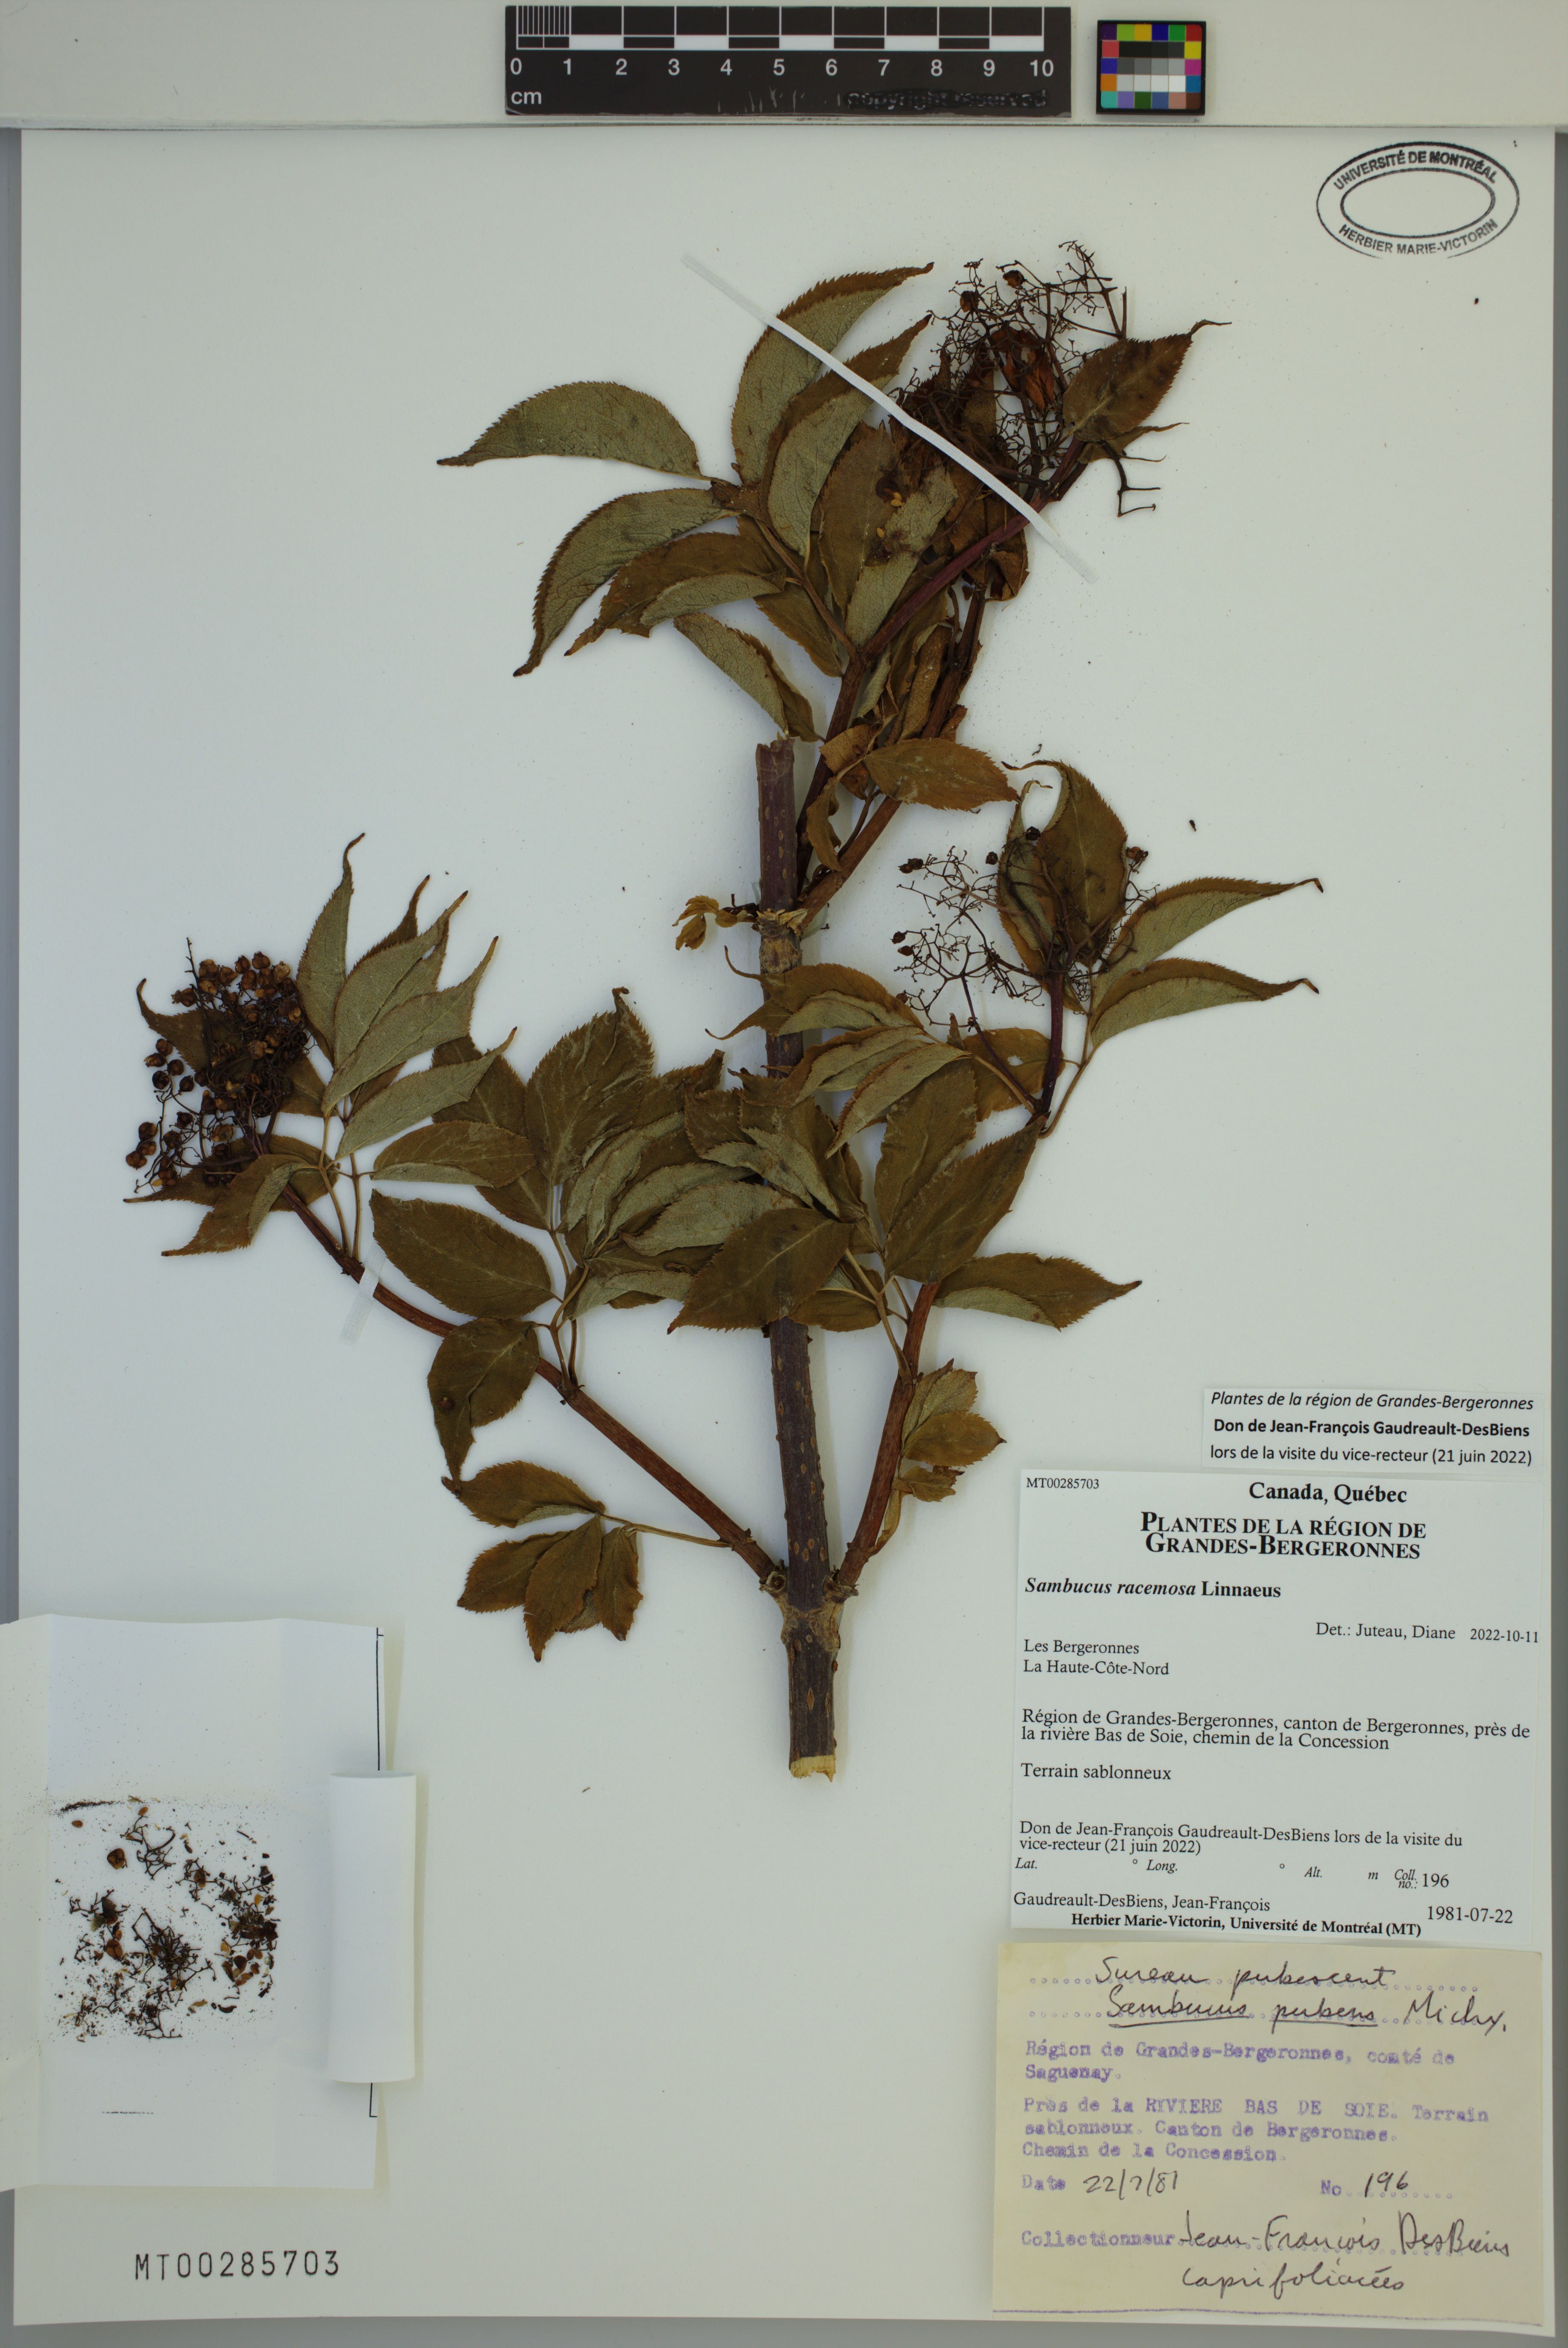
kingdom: Plantae
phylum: Tracheophyta
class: Magnoliopsida
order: Dipsacales
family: Viburnaceae
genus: Sambucus
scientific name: Sambucus racemosa
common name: Red-berried elder
